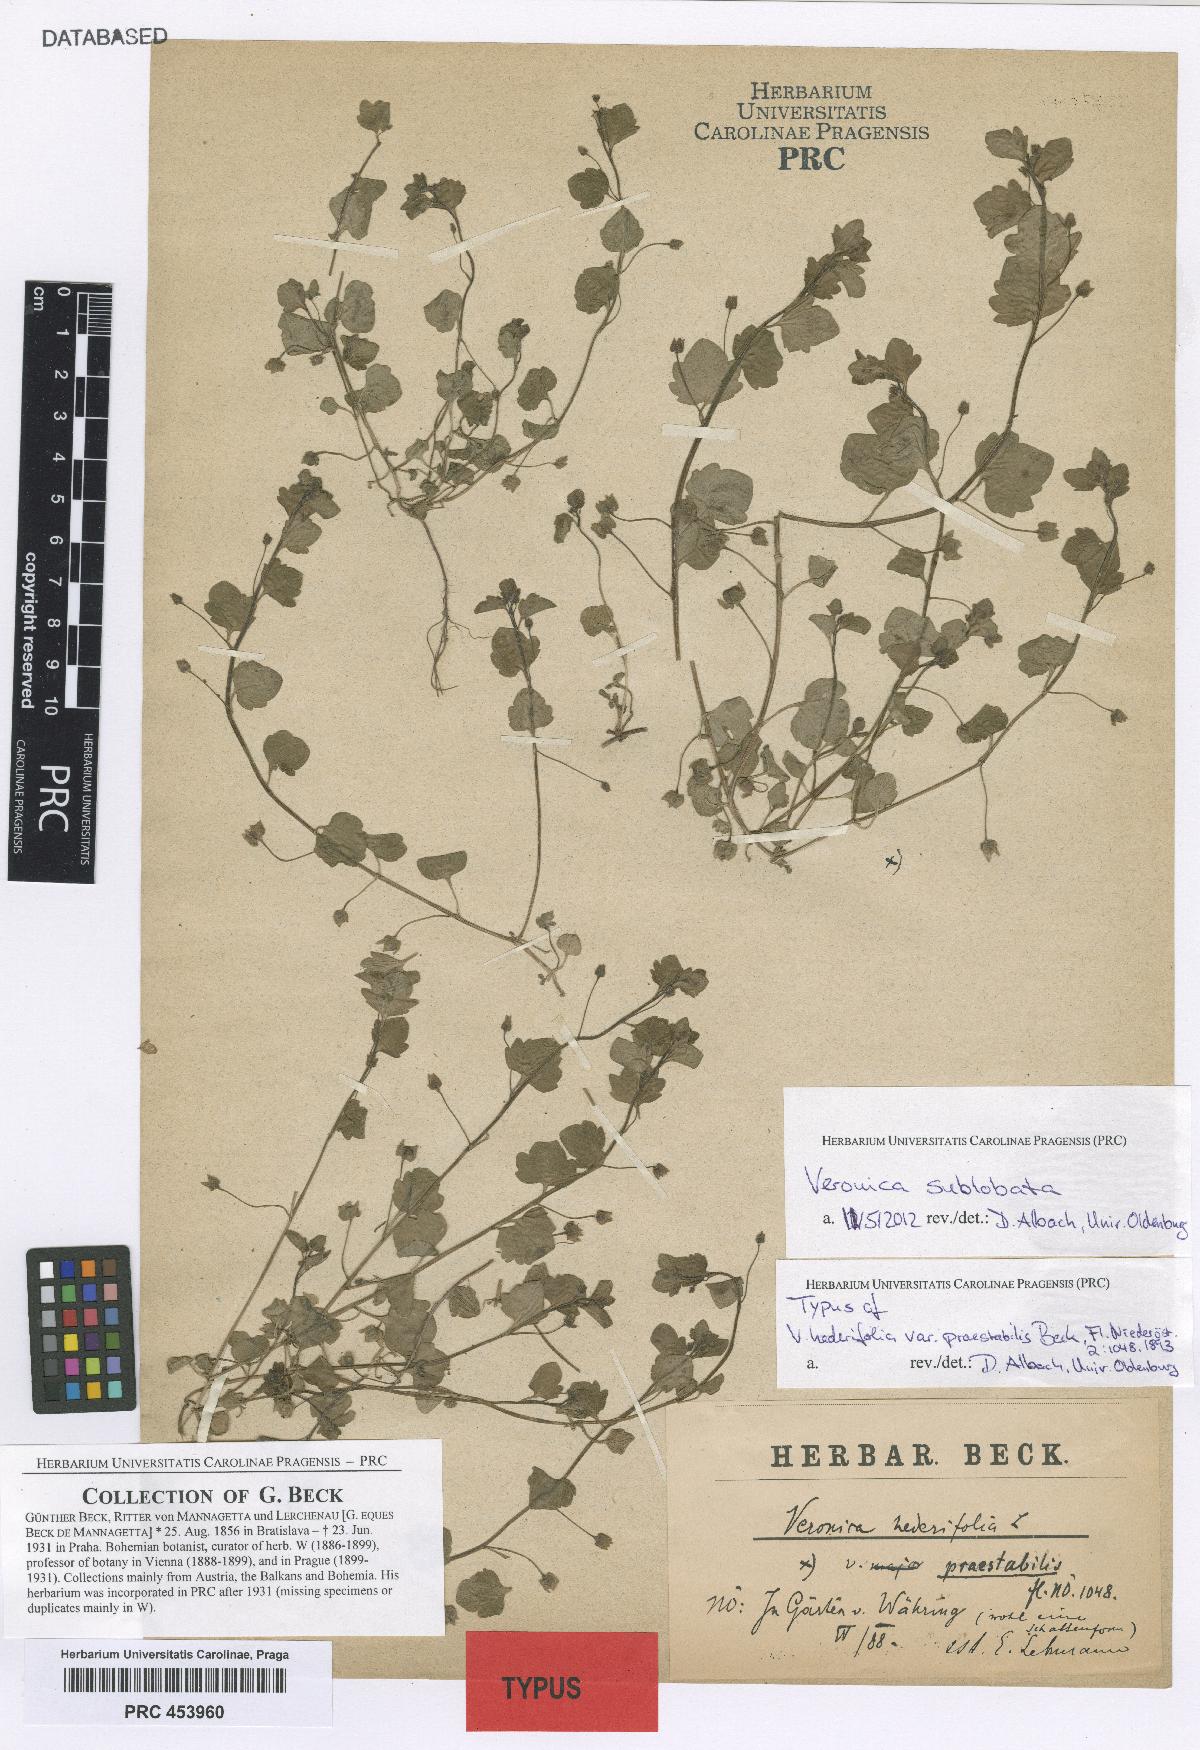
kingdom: Plantae
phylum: Tracheophyta
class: Magnoliopsida
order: Lamiales
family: Plantaginaceae
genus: Veronica
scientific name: Veronica sublobata
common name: False ivy-leaved speedwell
